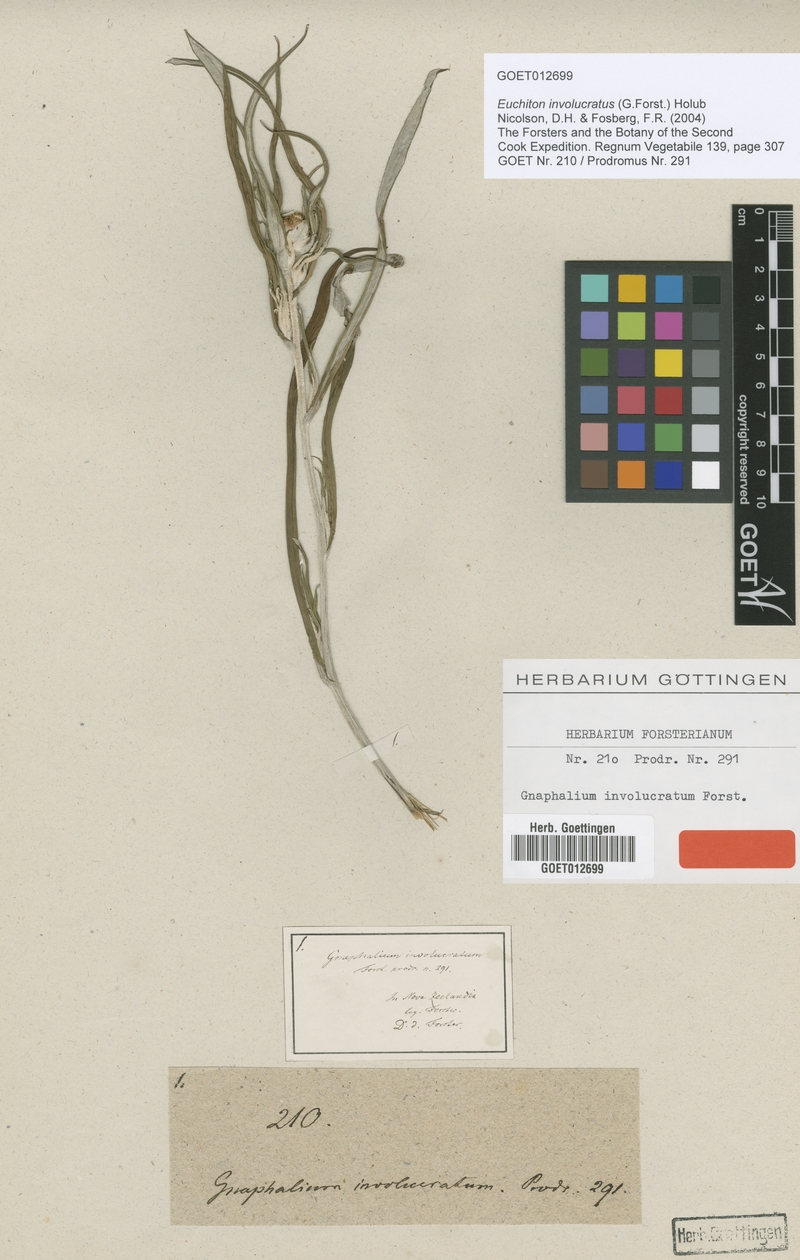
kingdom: Plantae
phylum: Tracheophyta
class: Magnoliopsida
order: Asterales
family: Asteraceae
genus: Euchiton
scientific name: Euchiton involucratus
